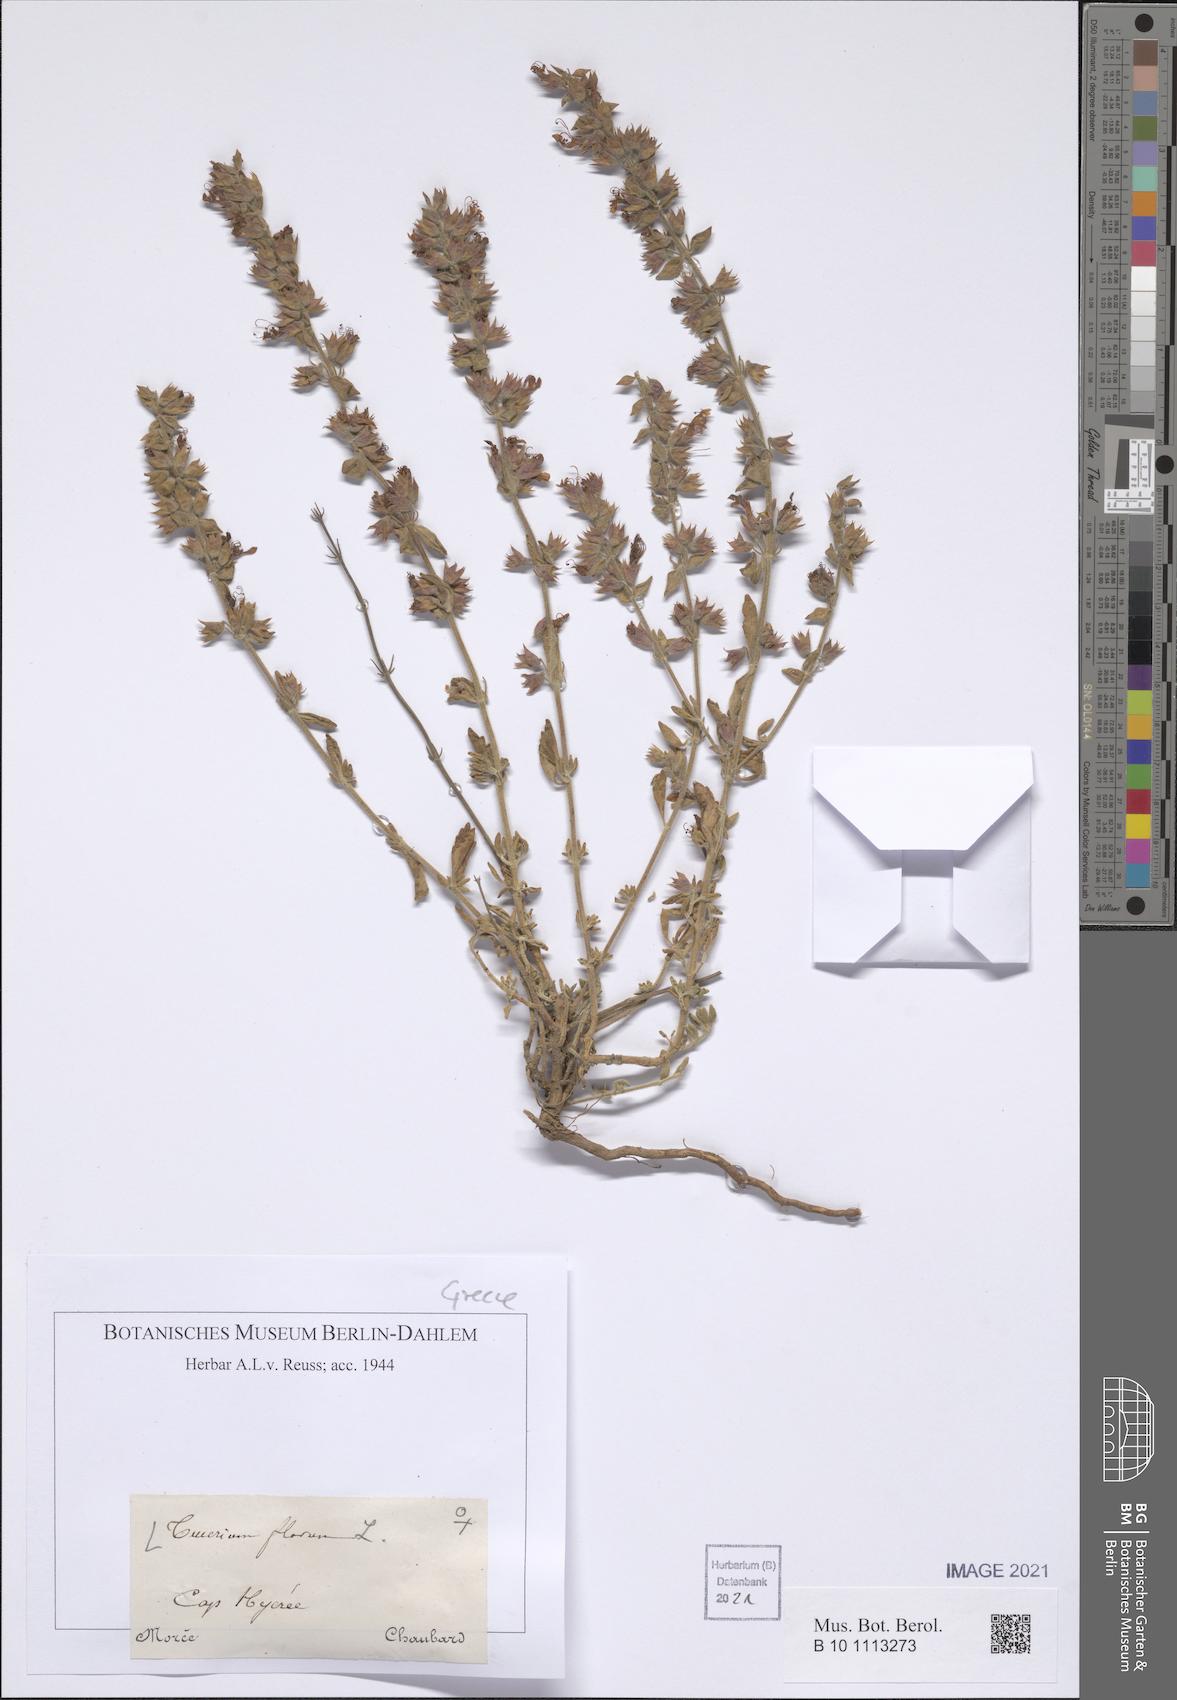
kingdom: Plantae
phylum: Tracheophyta
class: Magnoliopsida
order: Lamiales
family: Lamiaceae
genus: Teucrium
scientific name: Teucrium flavum
